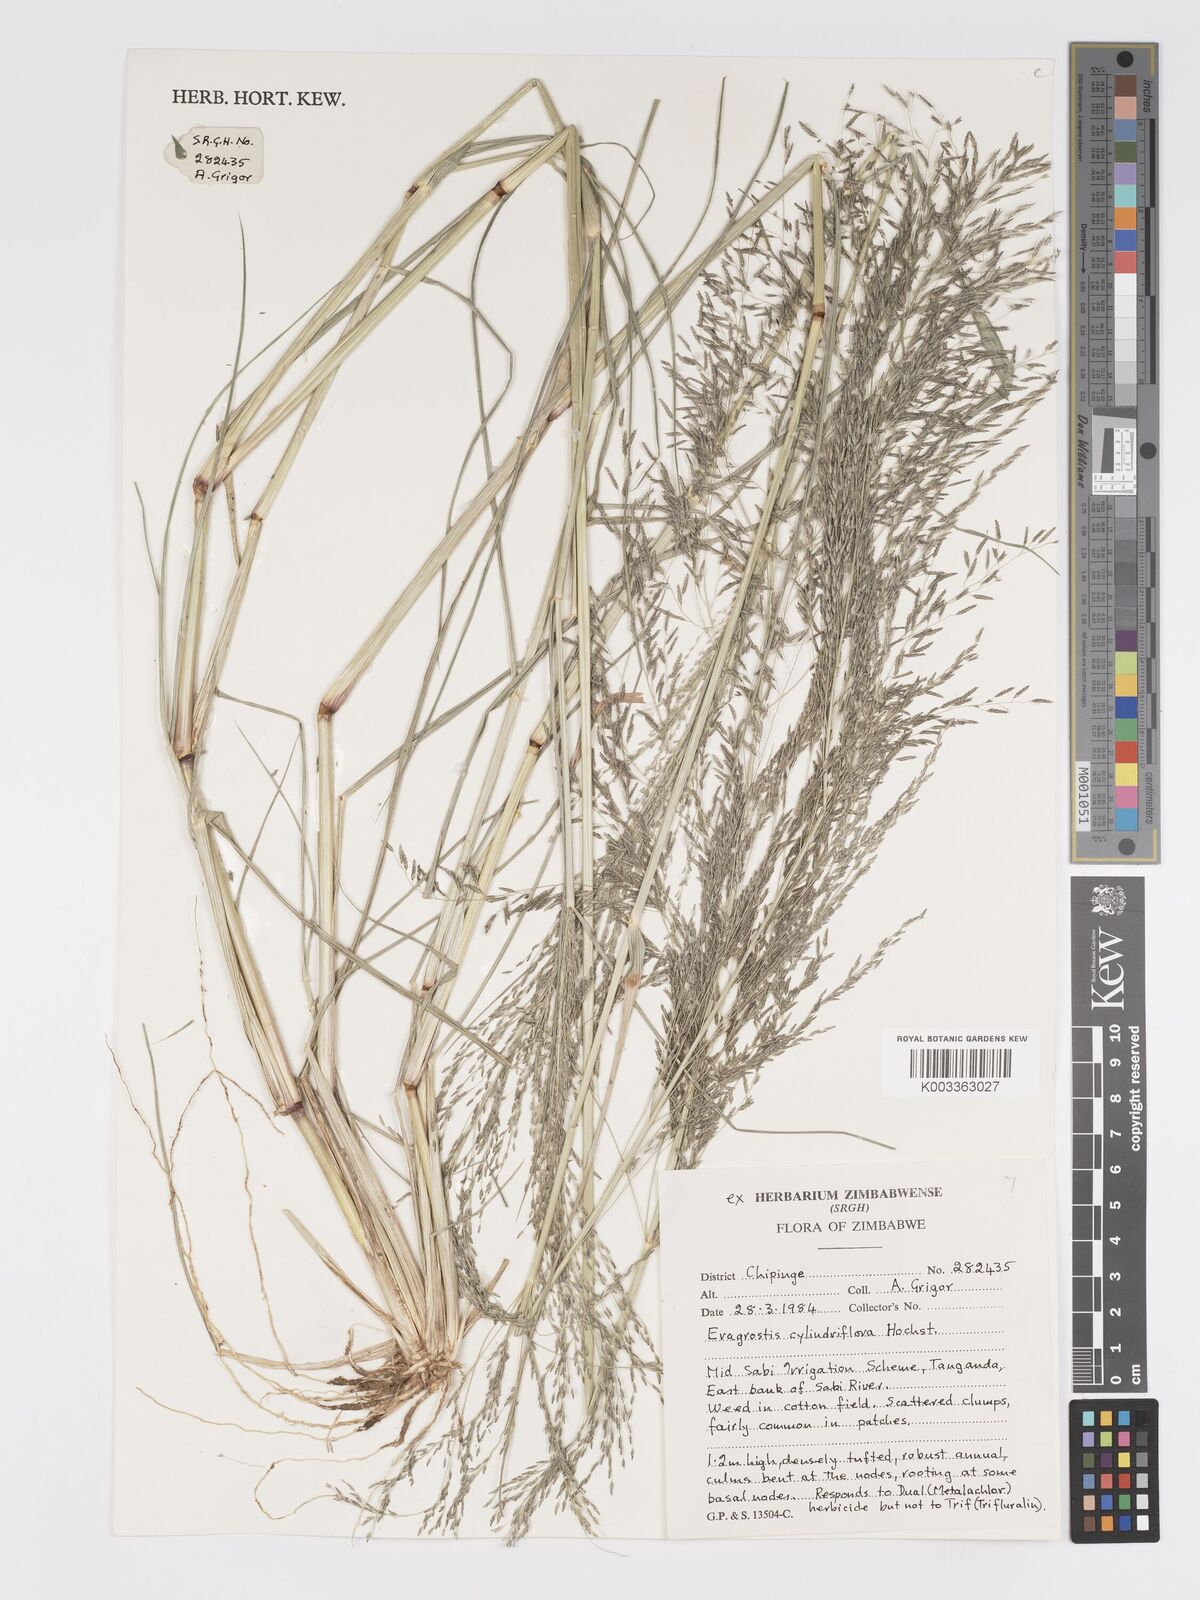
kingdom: Plantae
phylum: Tracheophyta
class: Liliopsida
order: Poales
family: Poaceae
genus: Eragrostis
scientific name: Eragrostis cylindriflora
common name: Cylinderflower lovegrass
